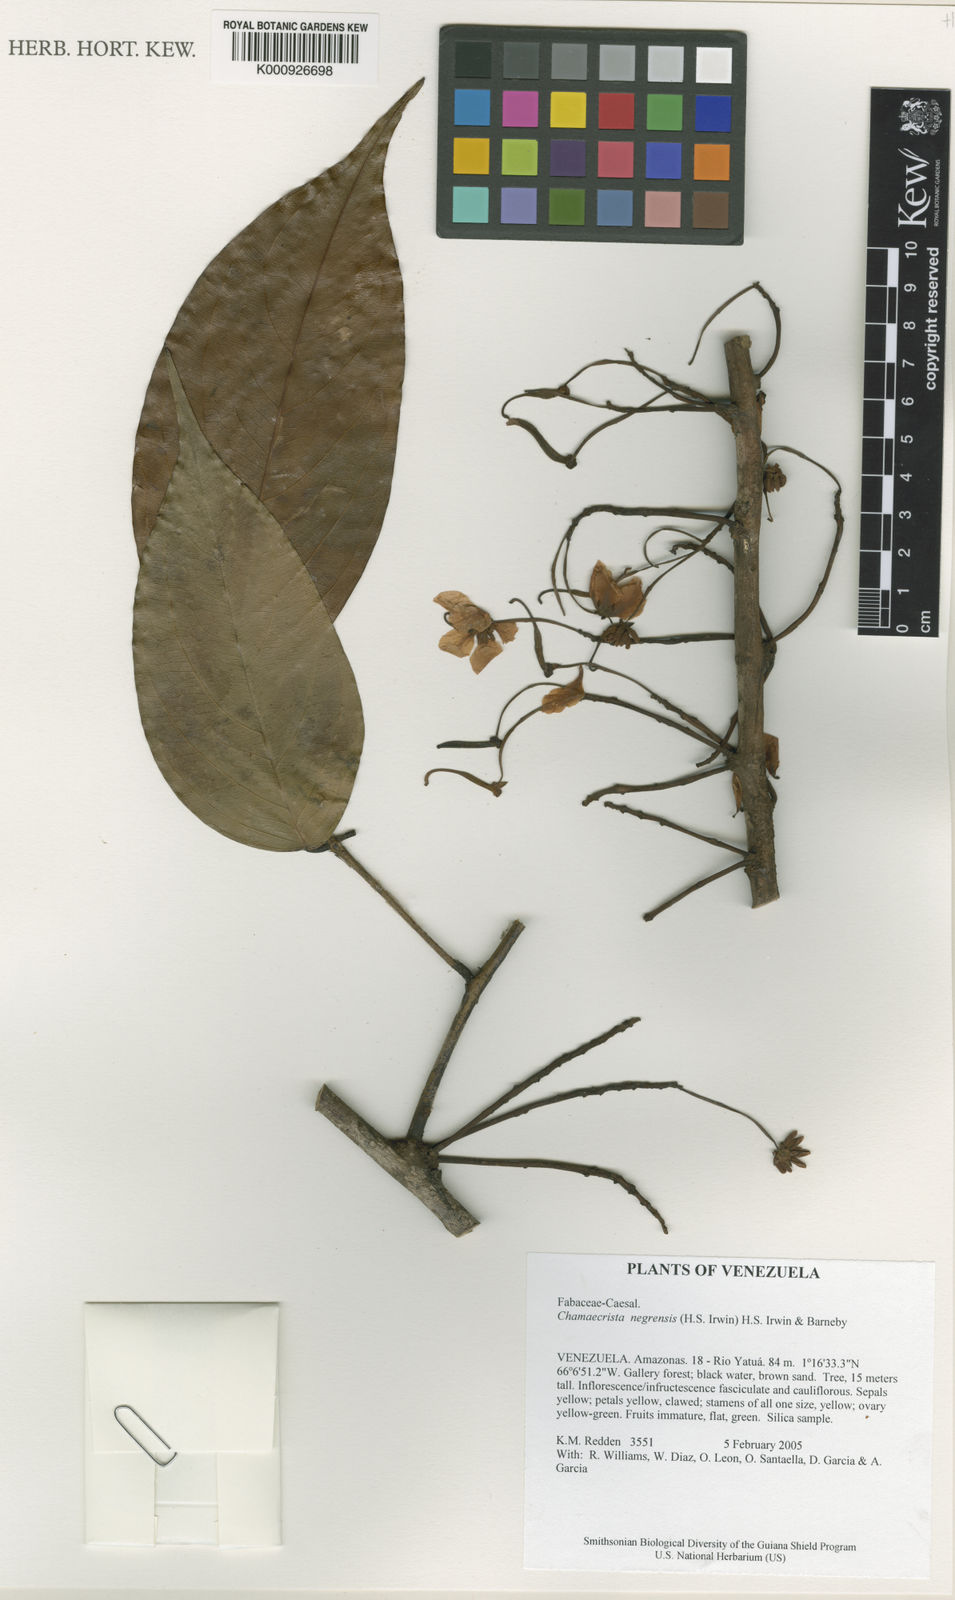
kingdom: Plantae
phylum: Tracheophyta
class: Magnoliopsida
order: Fabales
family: Fabaceae
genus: Chamaecrista
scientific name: Chamaecrista negrensis
